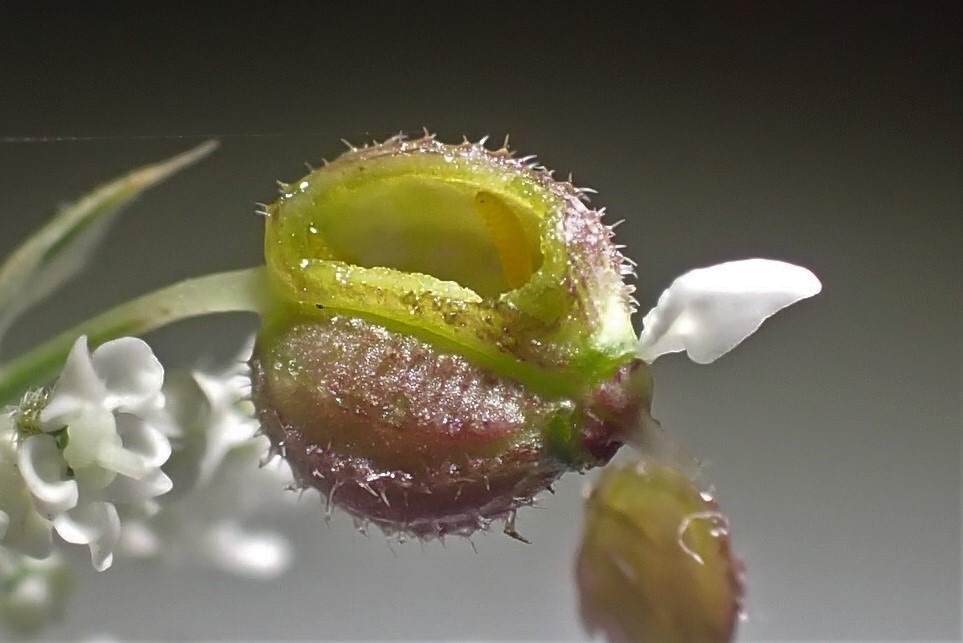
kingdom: Animalia
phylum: Arthropoda
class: Insecta
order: Diptera
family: Cecidomyiidae
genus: Kiefferia
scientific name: Kiefferia pericarpiicola
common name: Gulerodsgalmyg
